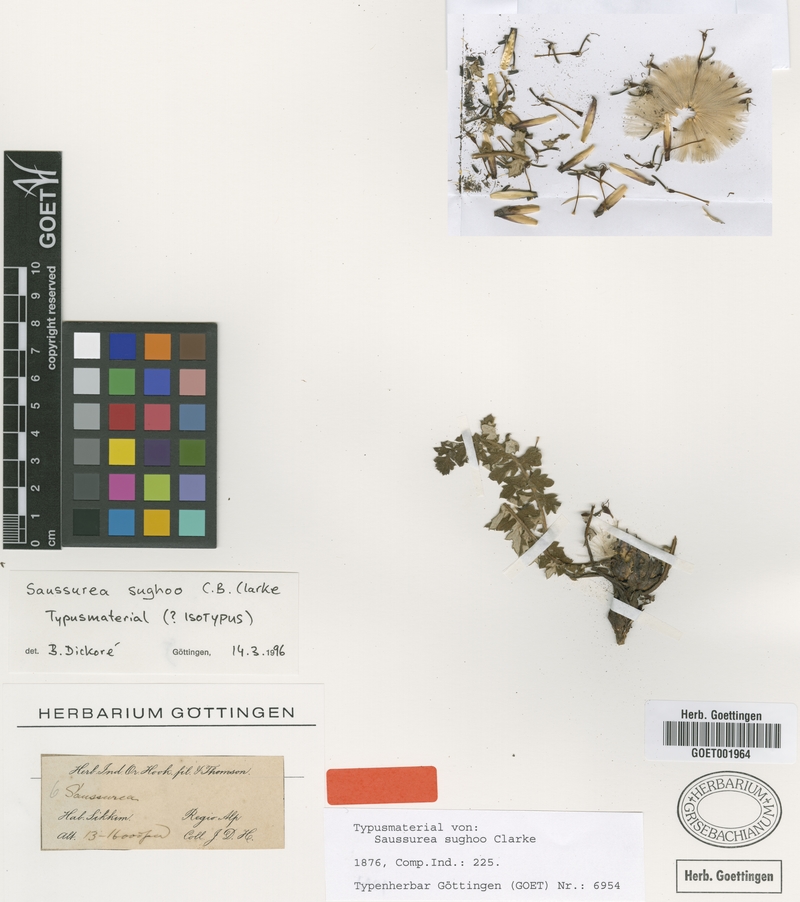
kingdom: Plantae
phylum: Tracheophyta
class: Magnoliopsida
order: Asterales
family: Asteraceae
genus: Saussurea
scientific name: Saussurea sughoo
